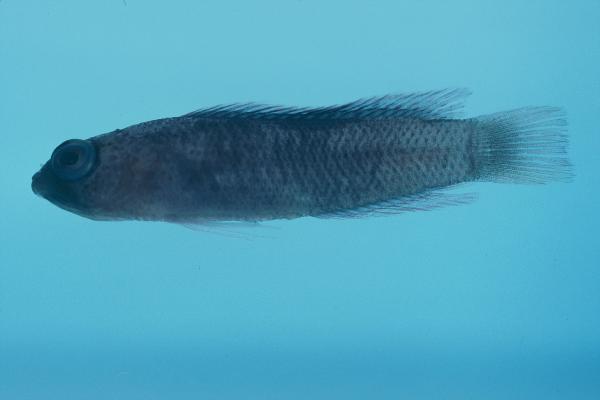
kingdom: Animalia
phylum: Chordata
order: Perciformes
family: Pseudochromidae
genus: Chlidichthys
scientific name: Chlidichthys smithae
